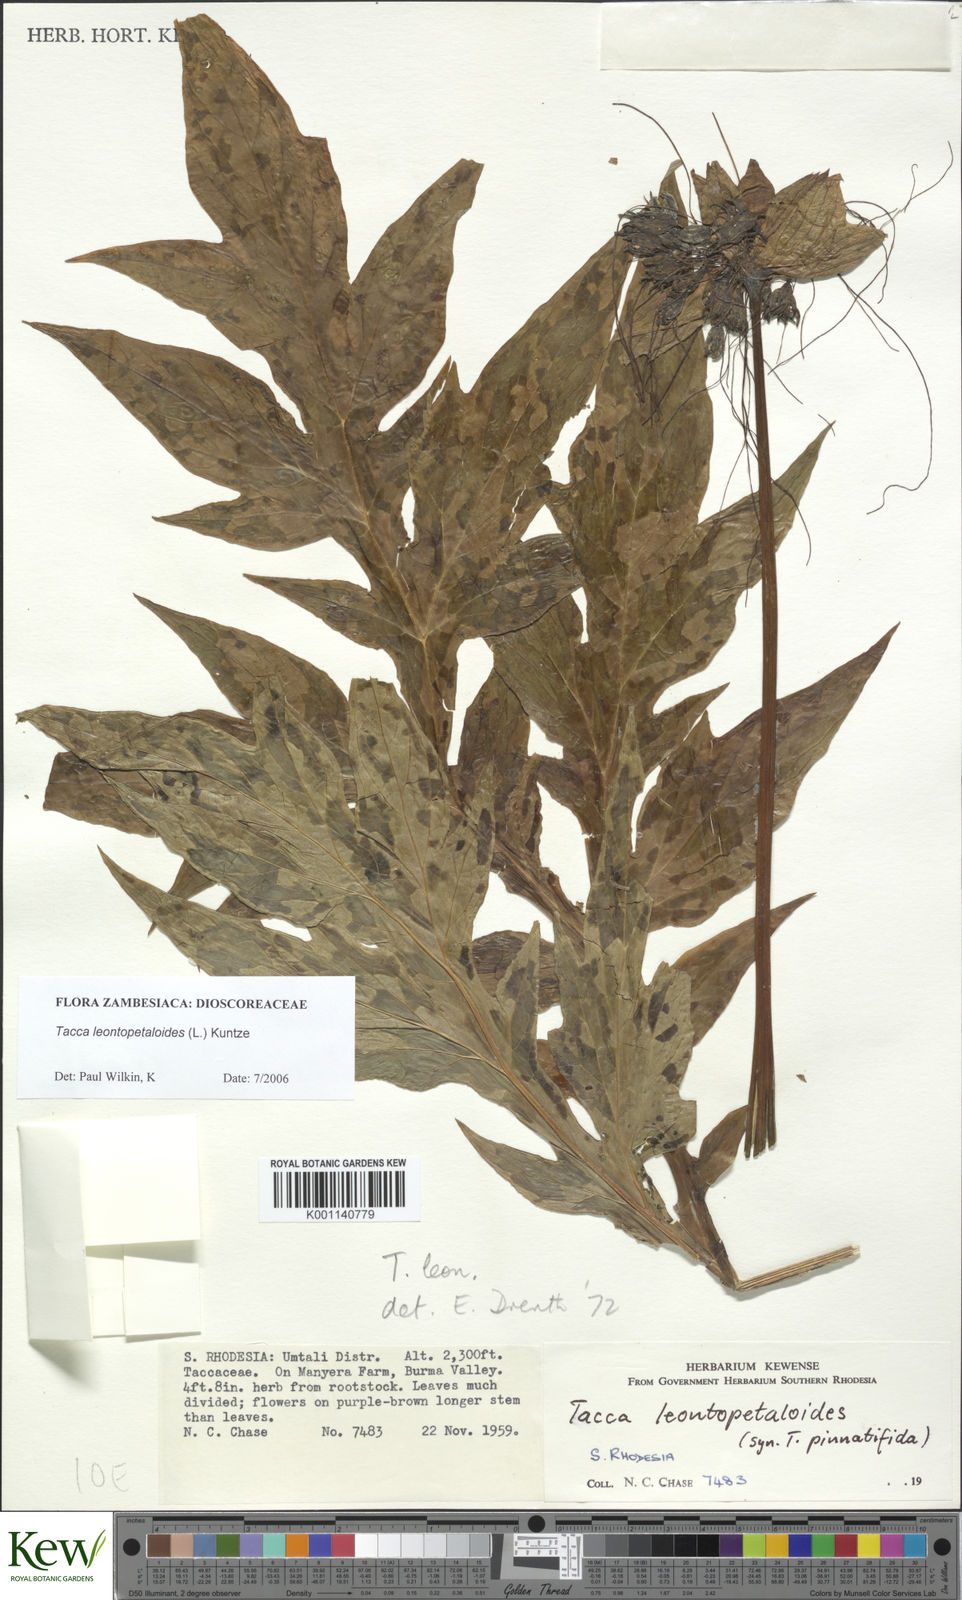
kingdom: Plantae
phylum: Tracheophyta
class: Liliopsida
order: Dioscoreales
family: Dioscoreaceae
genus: Tacca
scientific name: Tacca leontopetaloides
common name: Arrowroot
